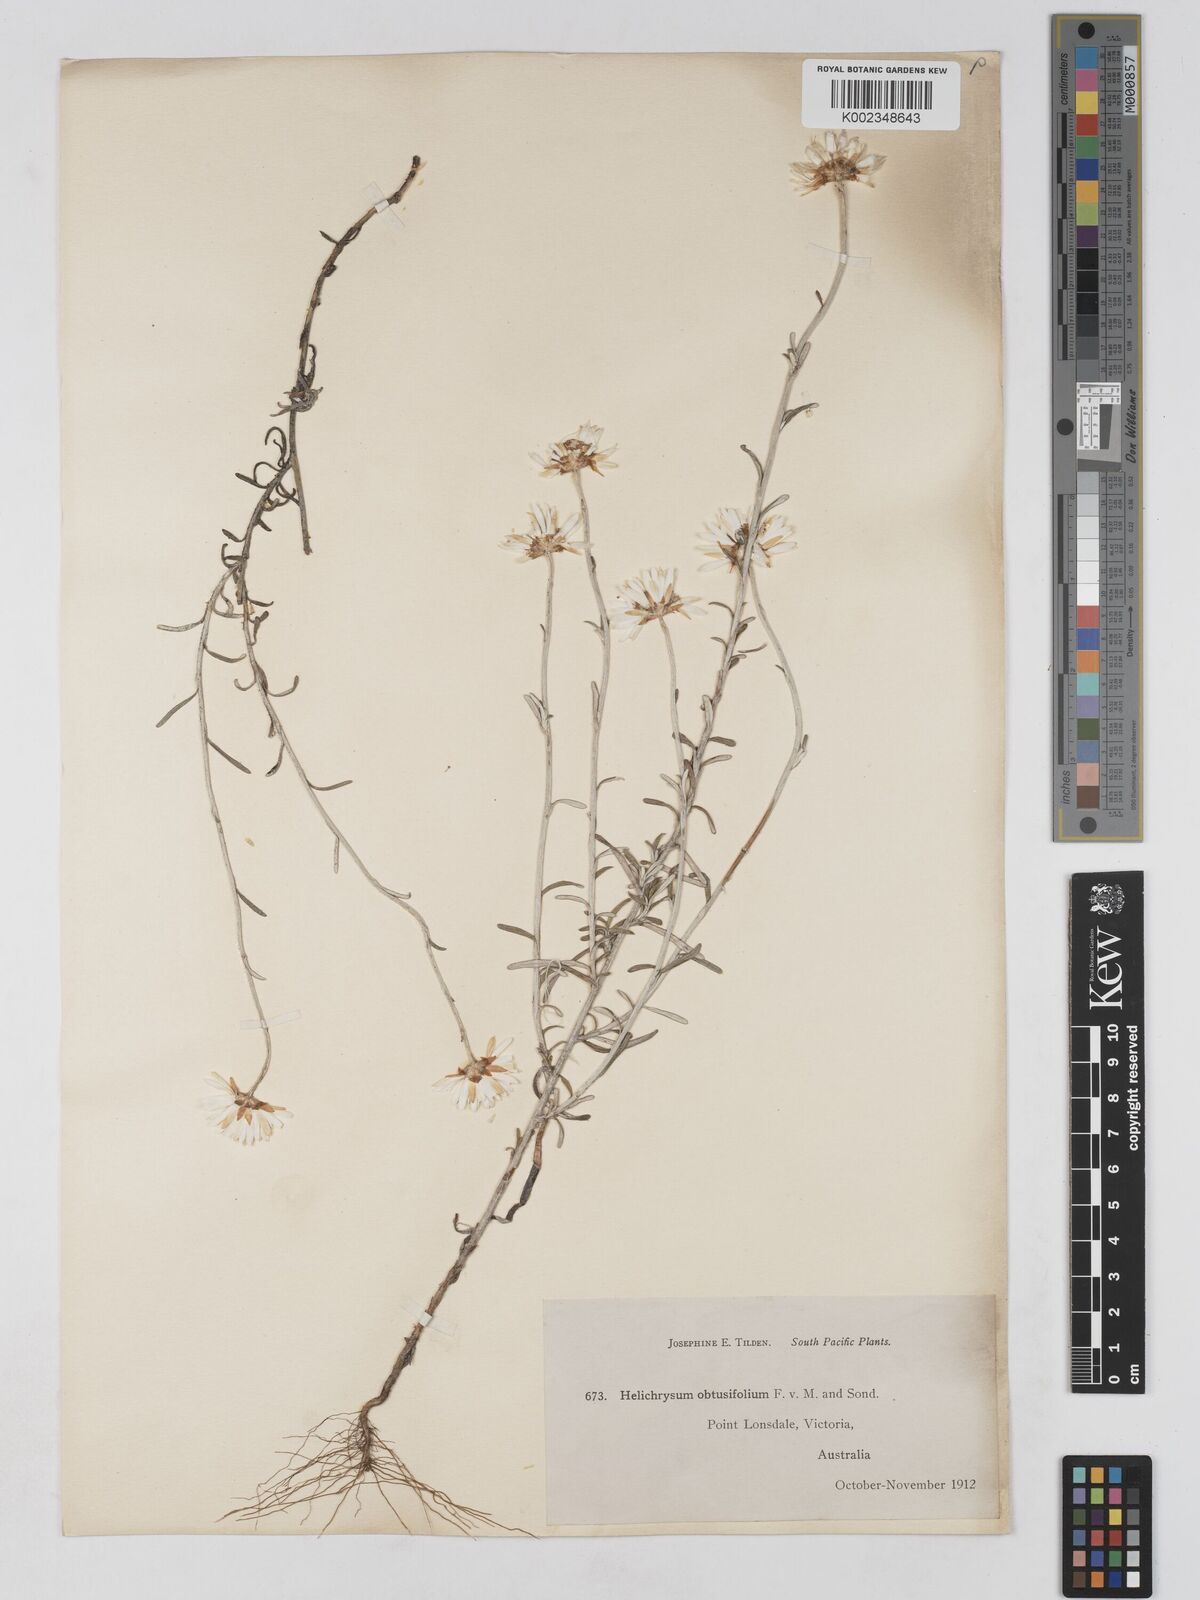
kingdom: Plantae
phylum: Tracheophyta
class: Magnoliopsida
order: Asterales
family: Asteraceae
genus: Argentipallium
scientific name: Argentipallium obtusifolium
